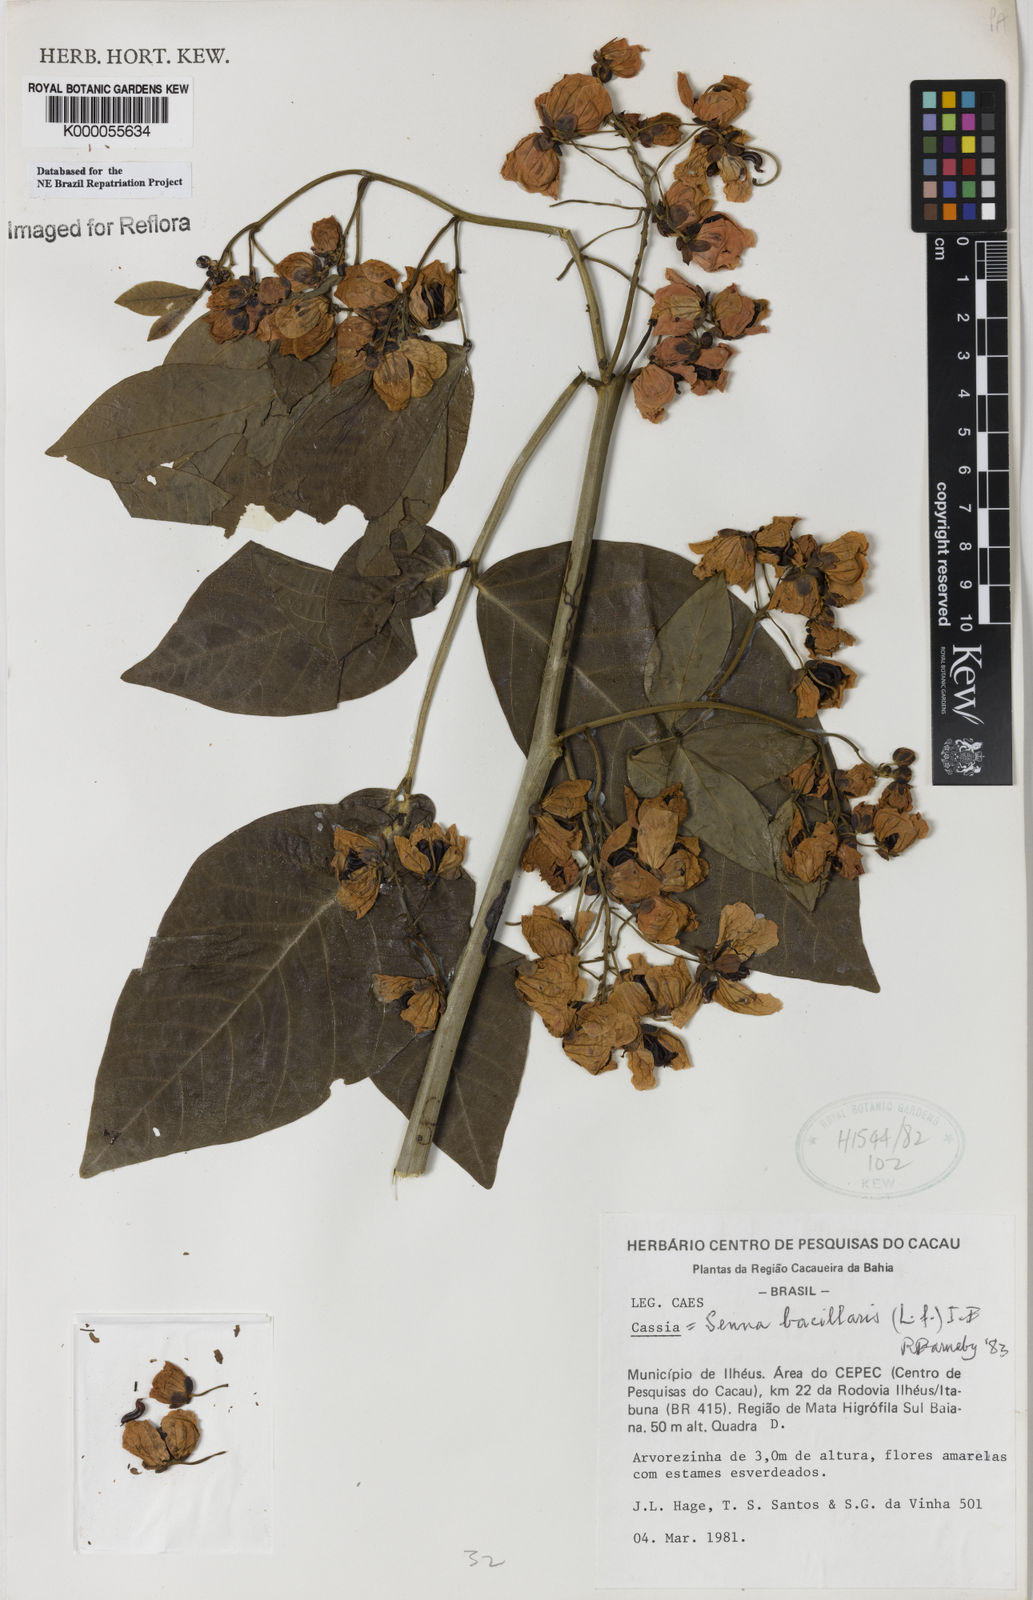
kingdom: Plantae
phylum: Tracheophyta
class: Magnoliopsida
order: Fabales
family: Fabaceae
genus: Senna
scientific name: Senna affinis
